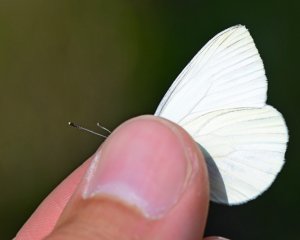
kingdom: Animalia
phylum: Arthropoda
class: Insecta
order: Lepidoptera
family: Pieridae
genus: Pieris
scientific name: Pieris oleracea
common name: Mustard White
